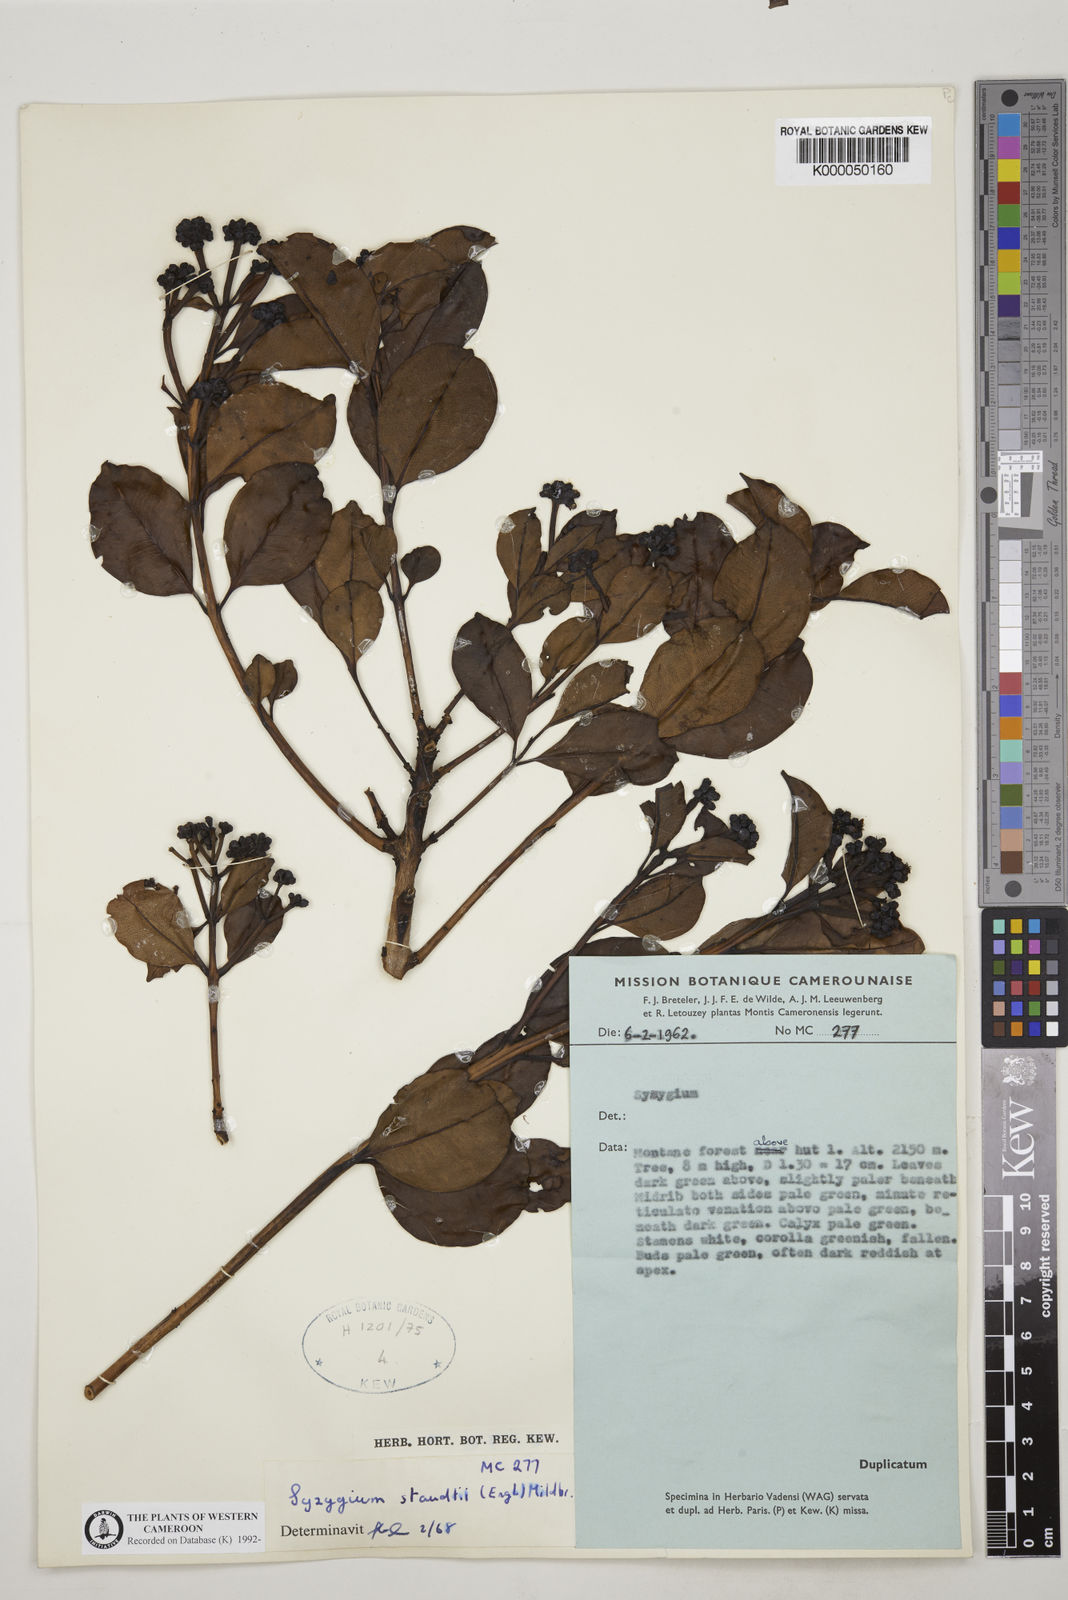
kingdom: Plantae
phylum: Tracheophyta
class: Magnoliopsida
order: Myrtales
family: Myrtaceae
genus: Syzygium
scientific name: Syzygium staudtii
